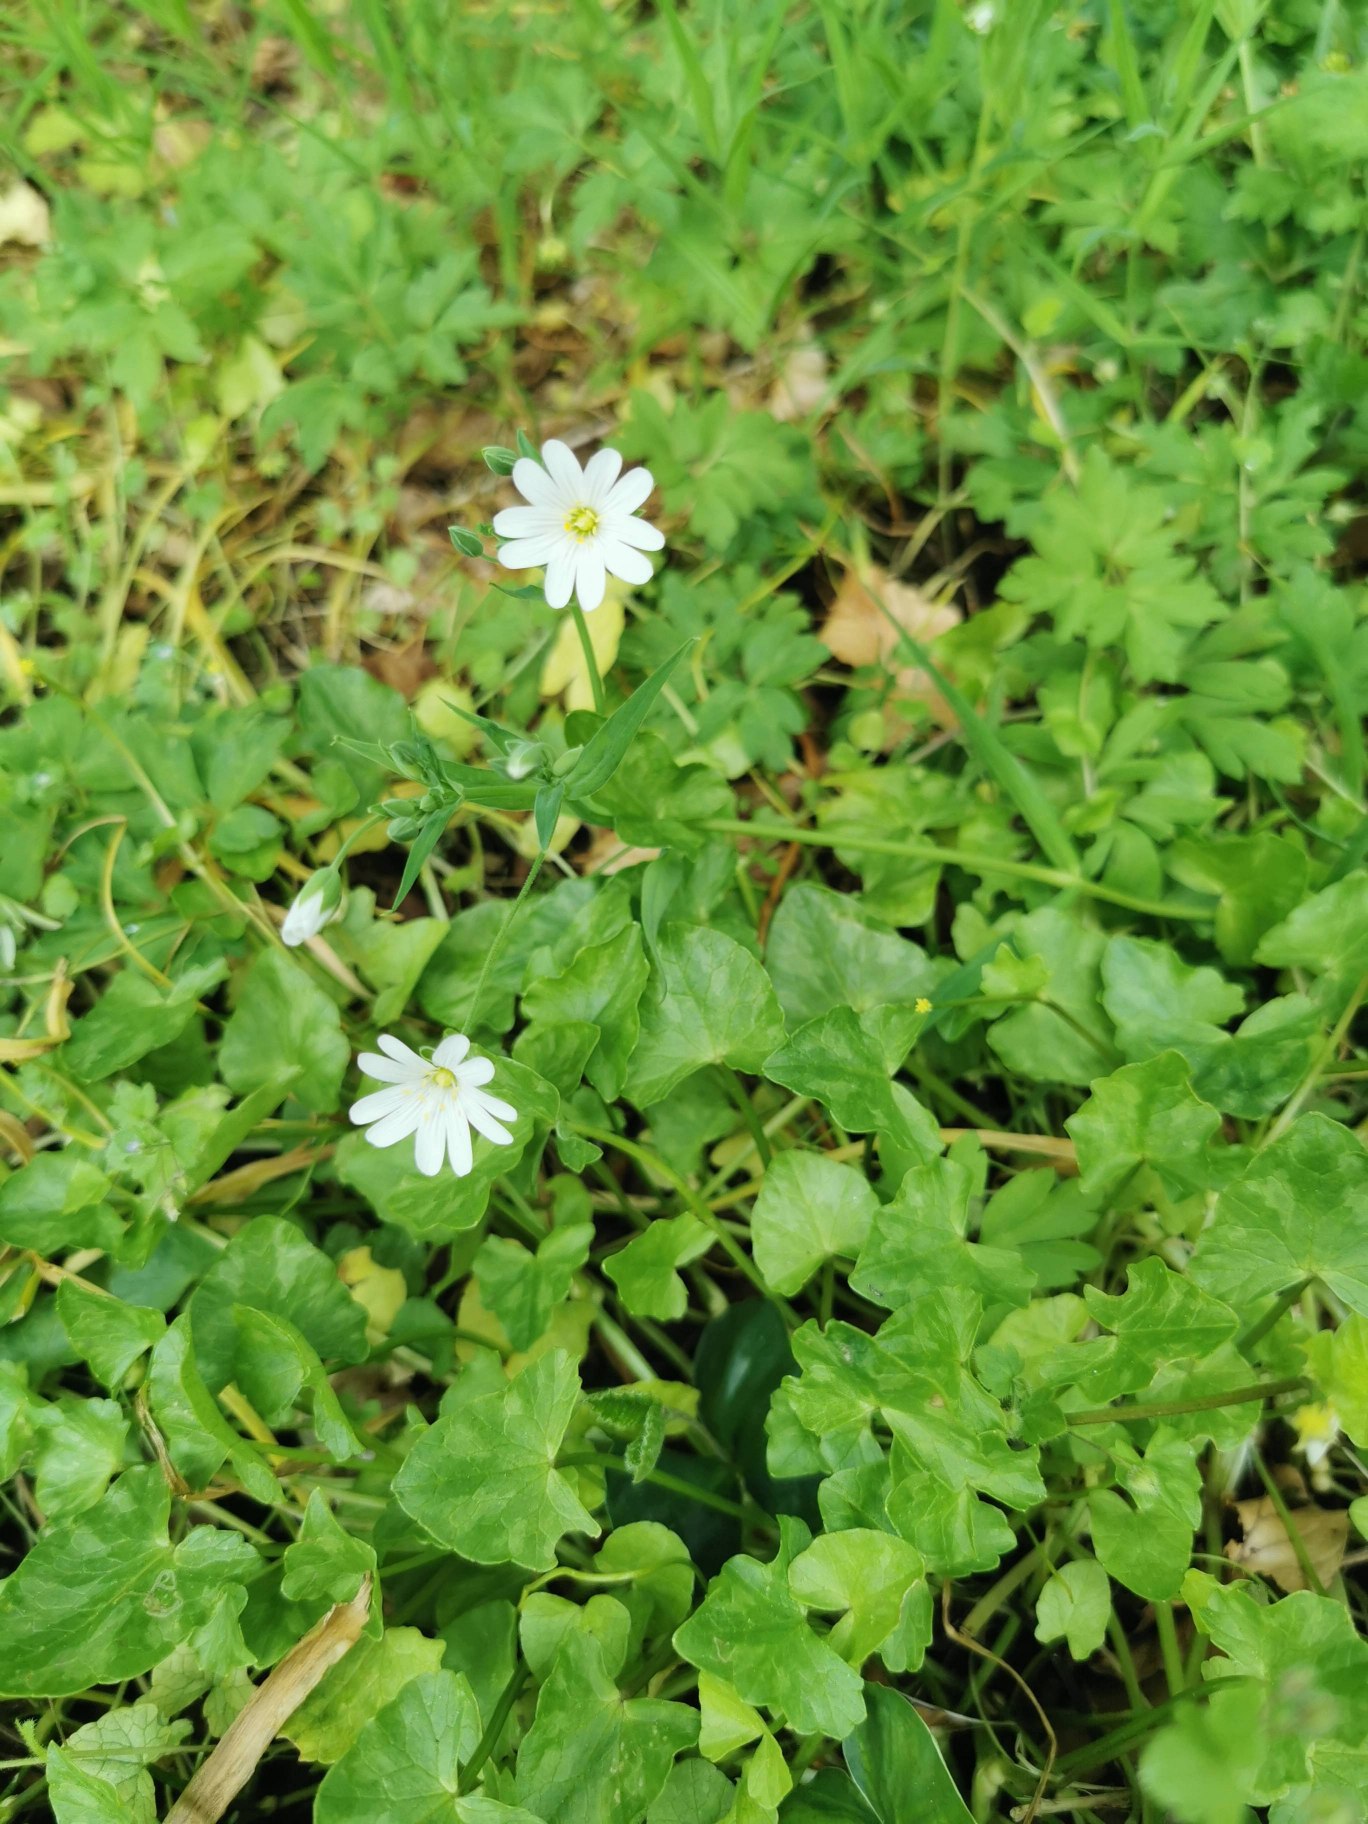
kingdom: Plantae
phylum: Tracheophyta
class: Magnoliopsida
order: Caryophyllales
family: Caryophyllaceae
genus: Rabelera
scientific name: Rabelera holostea
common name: Stor fladstjerne
